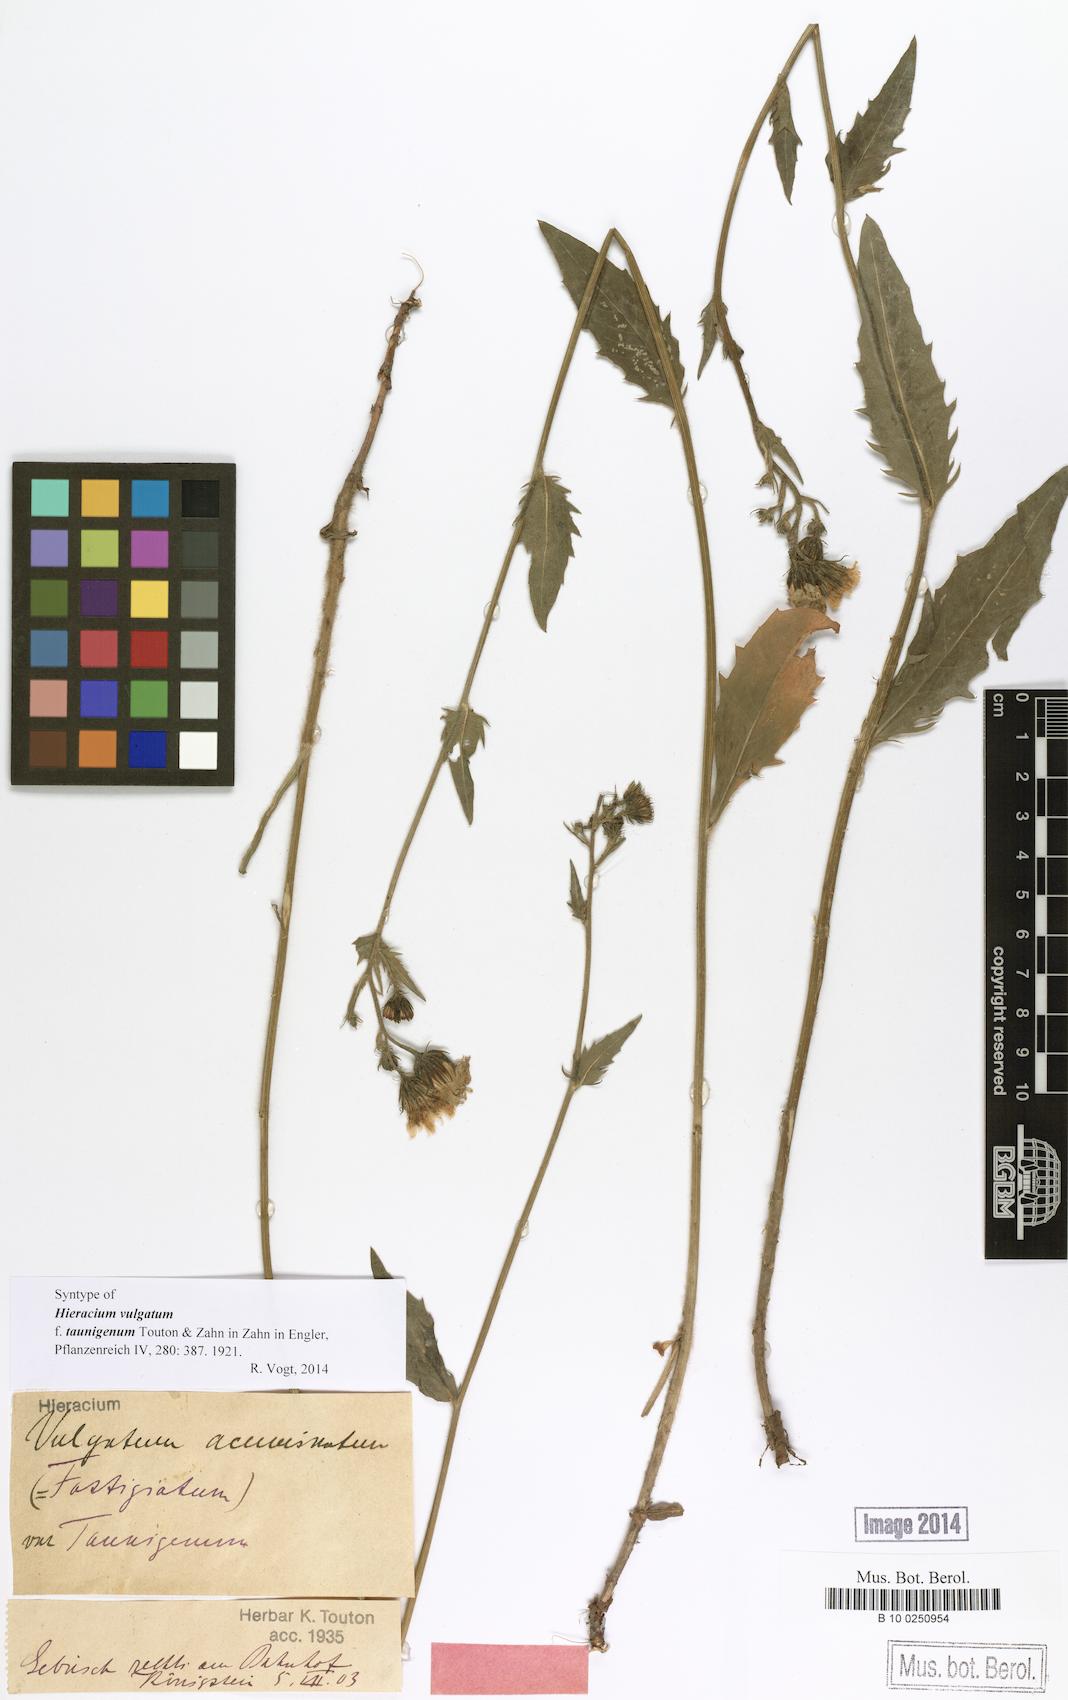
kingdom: Plantae
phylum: Tracheophyta
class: Magnoliopsida
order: Asterales
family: Asteraceae
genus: Hieracium
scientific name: Hieracium vulgatum
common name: Common hawkweed
